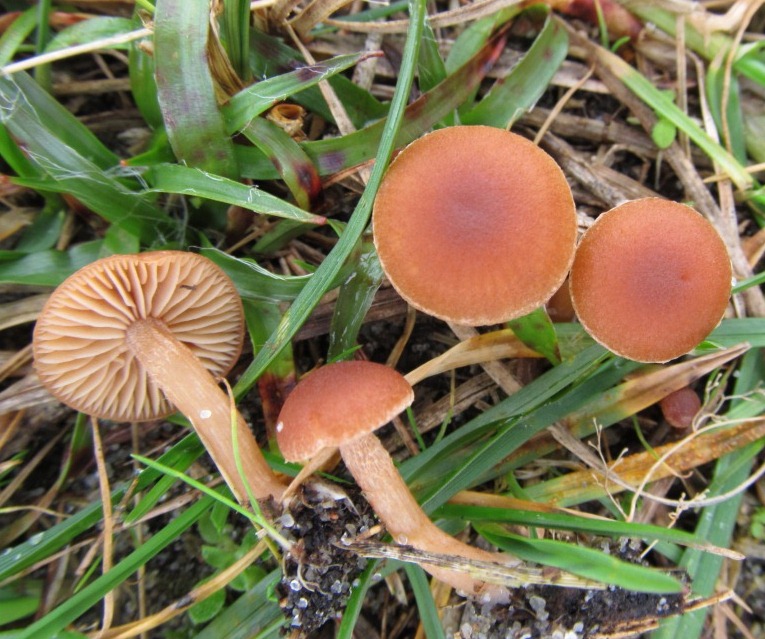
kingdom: Fungi
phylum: Basidiomycota
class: Agaricomycetes
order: Agaricales
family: Tubariaceae
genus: Tubaria
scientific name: Tubaria furfuracea
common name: kliddet fnughat
